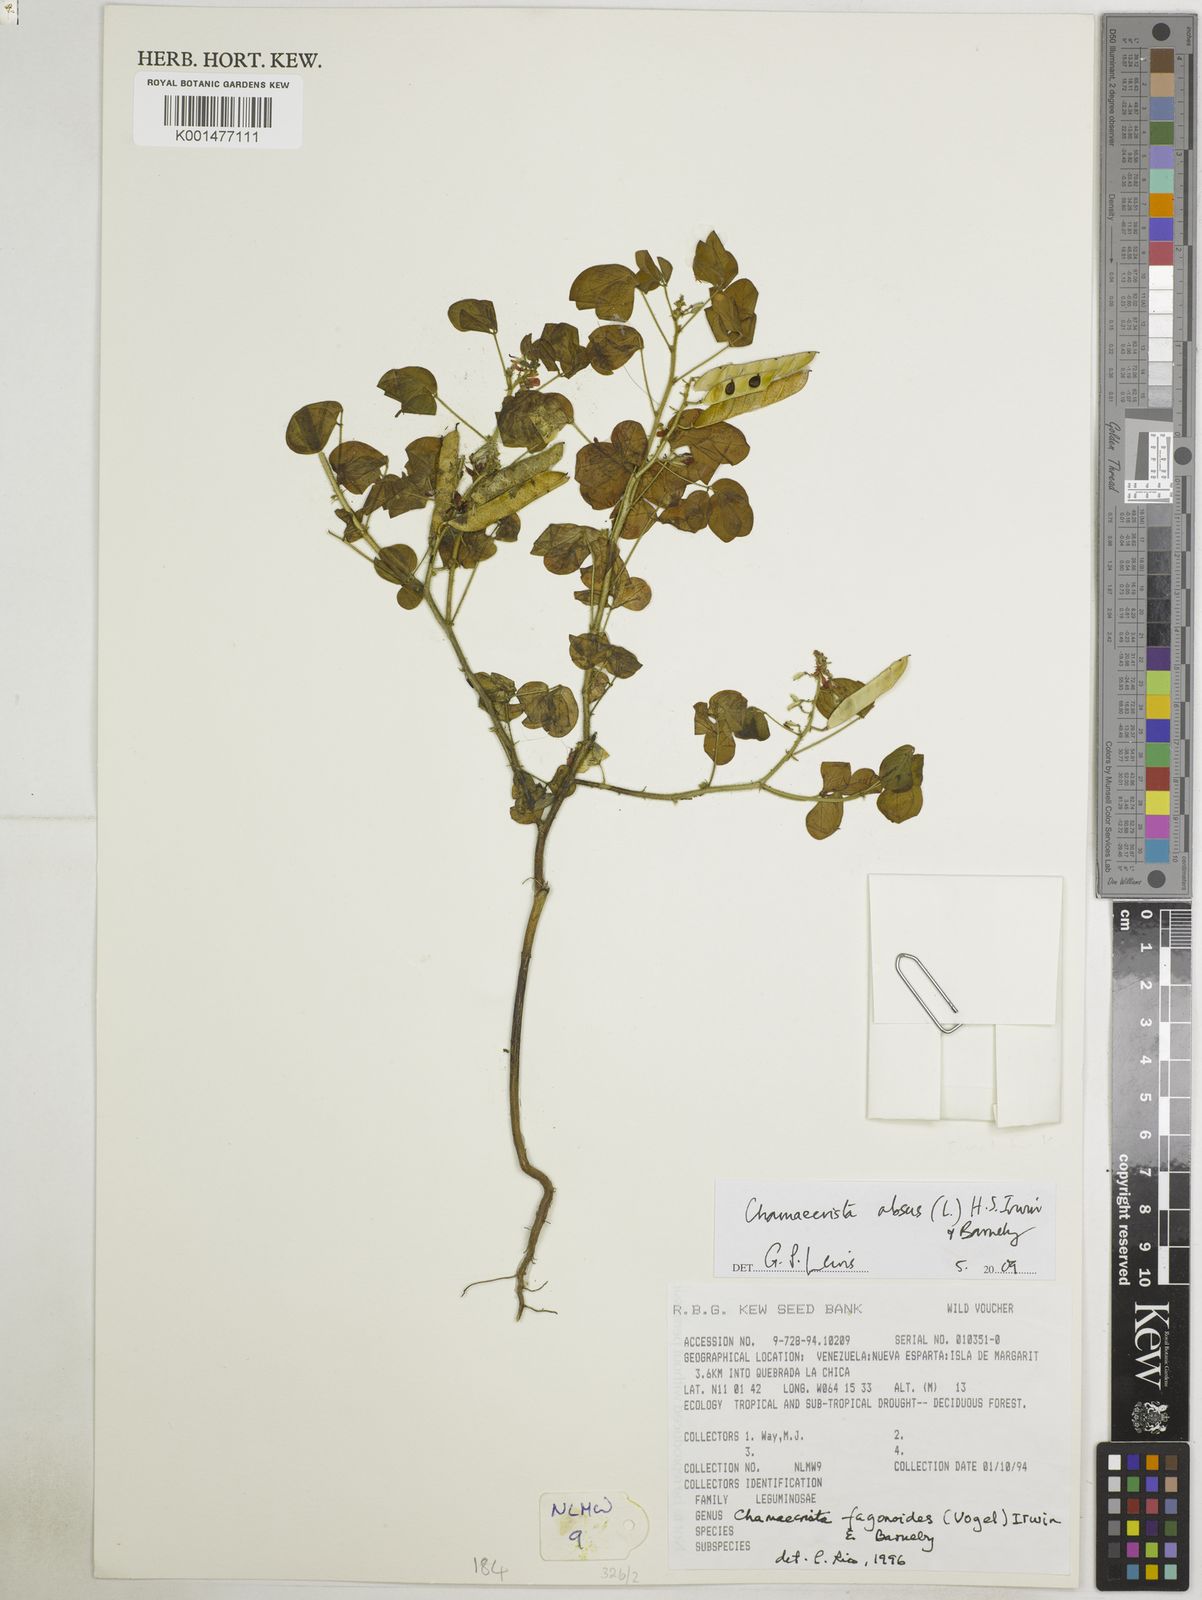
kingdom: Plantae
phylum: Tracheophyta
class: Magnoliopsida
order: Fabales
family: Fabaceae
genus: Chamaecrista
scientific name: Chamaecrista absus
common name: Tropical sensitive pea
